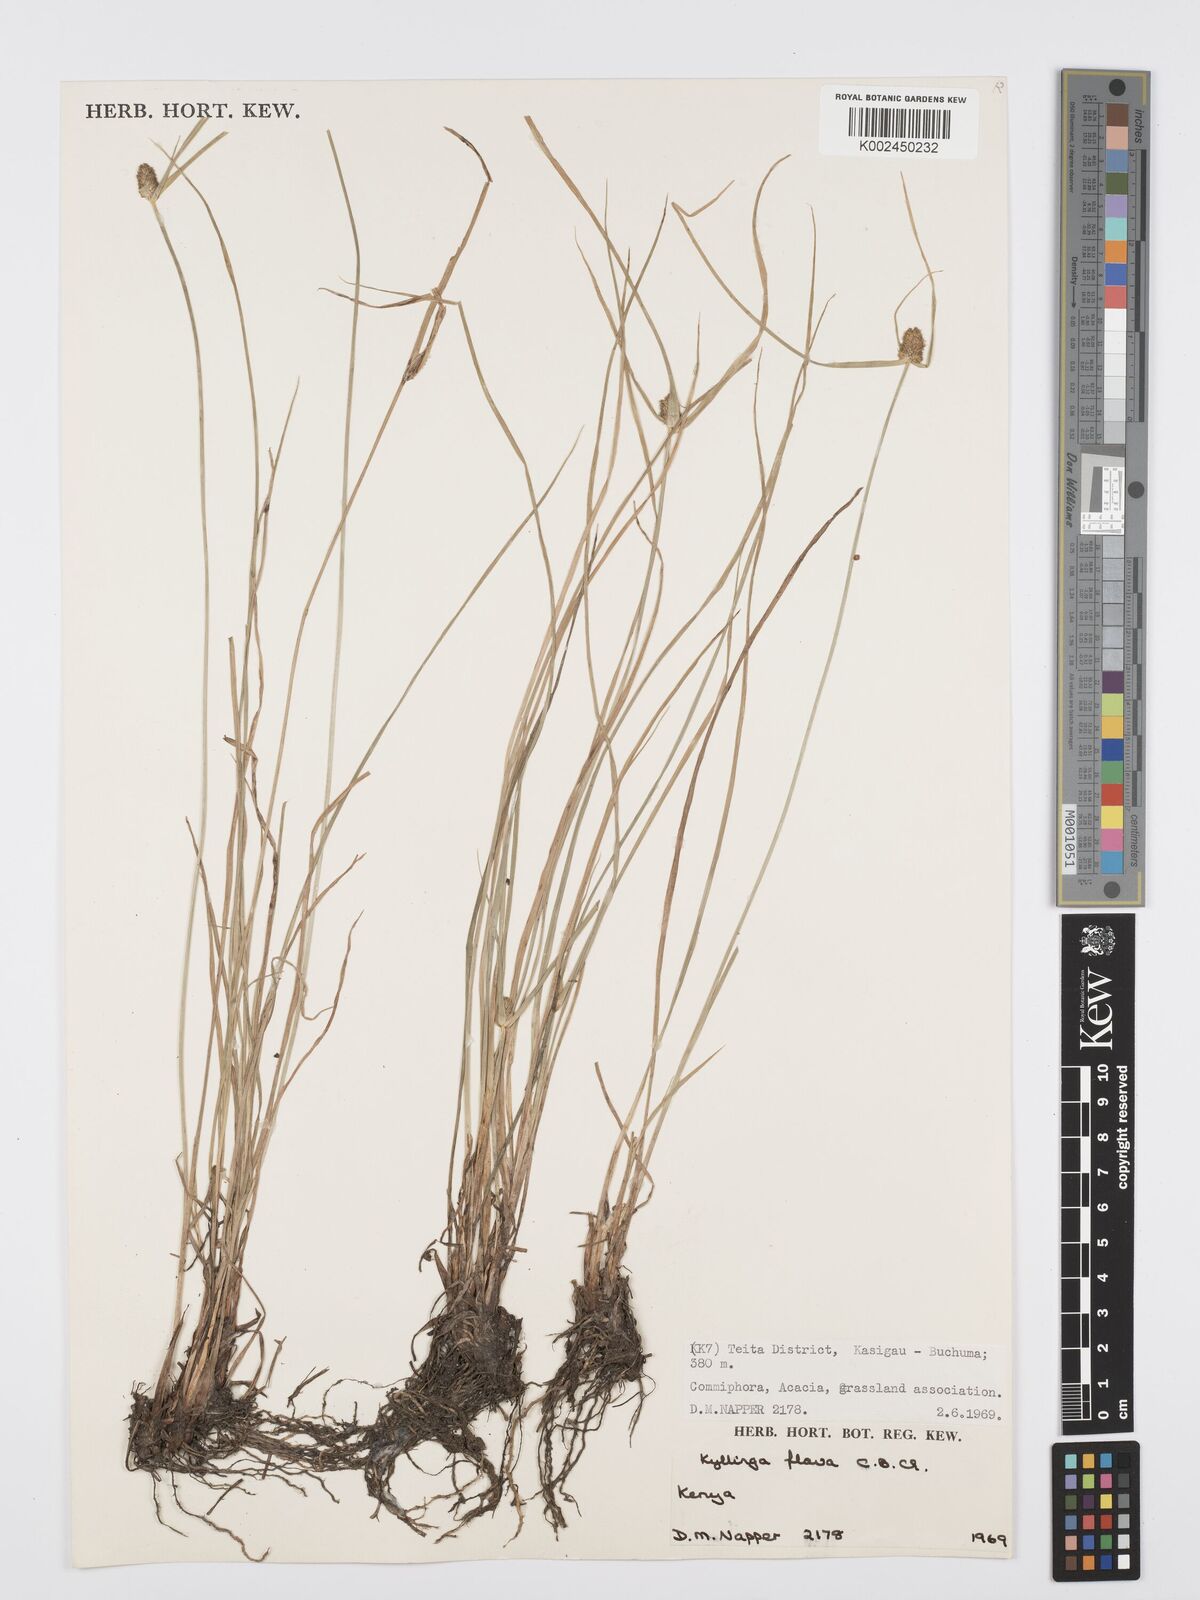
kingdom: Plantae
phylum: Tracheophyta
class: Liliopsida
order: Poales
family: Cyperaceae
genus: Cyperus
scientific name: Cyperus
